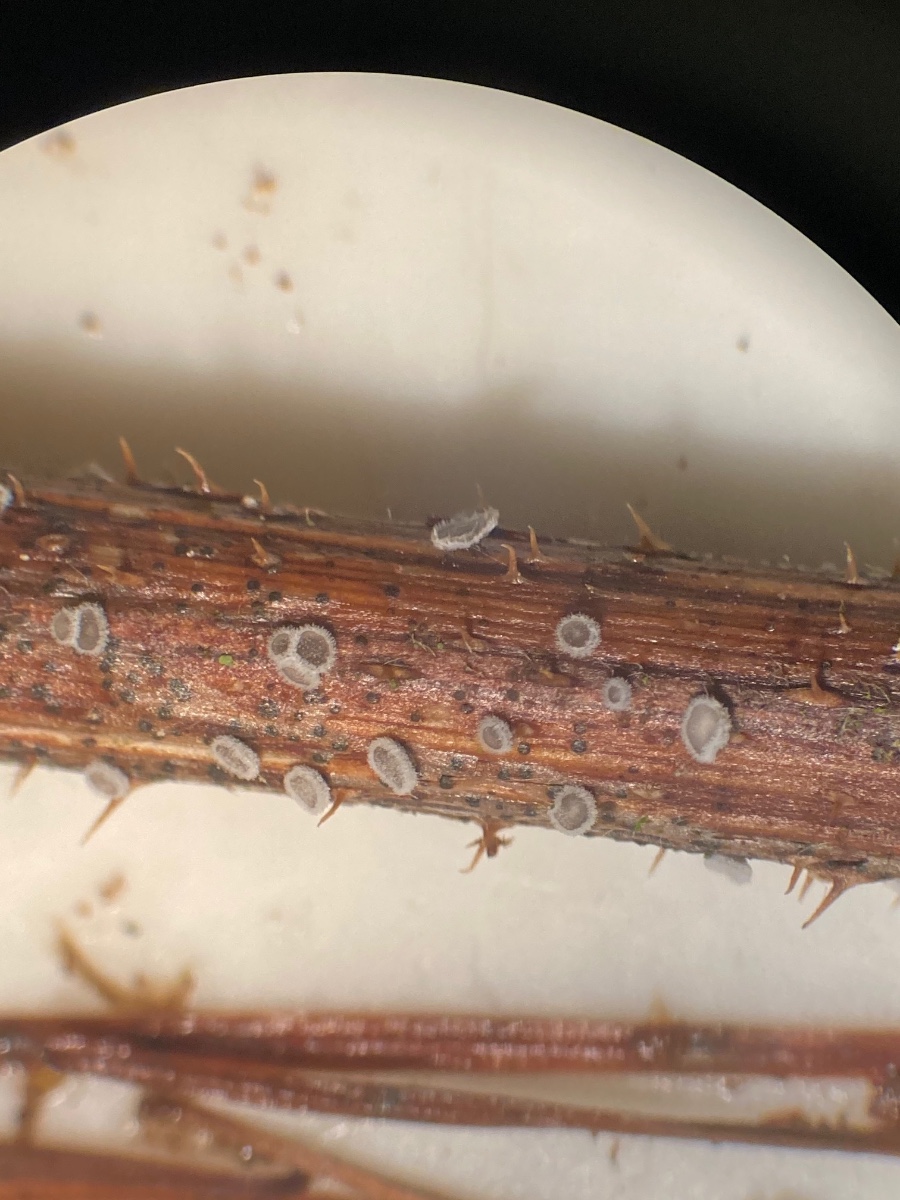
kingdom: Fungi
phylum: Basidiomycota
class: Agaricomycetes
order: Agaricales
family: Niaceae
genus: Lachnella
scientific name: Lachnella alboviolascens
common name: grå frynserede
